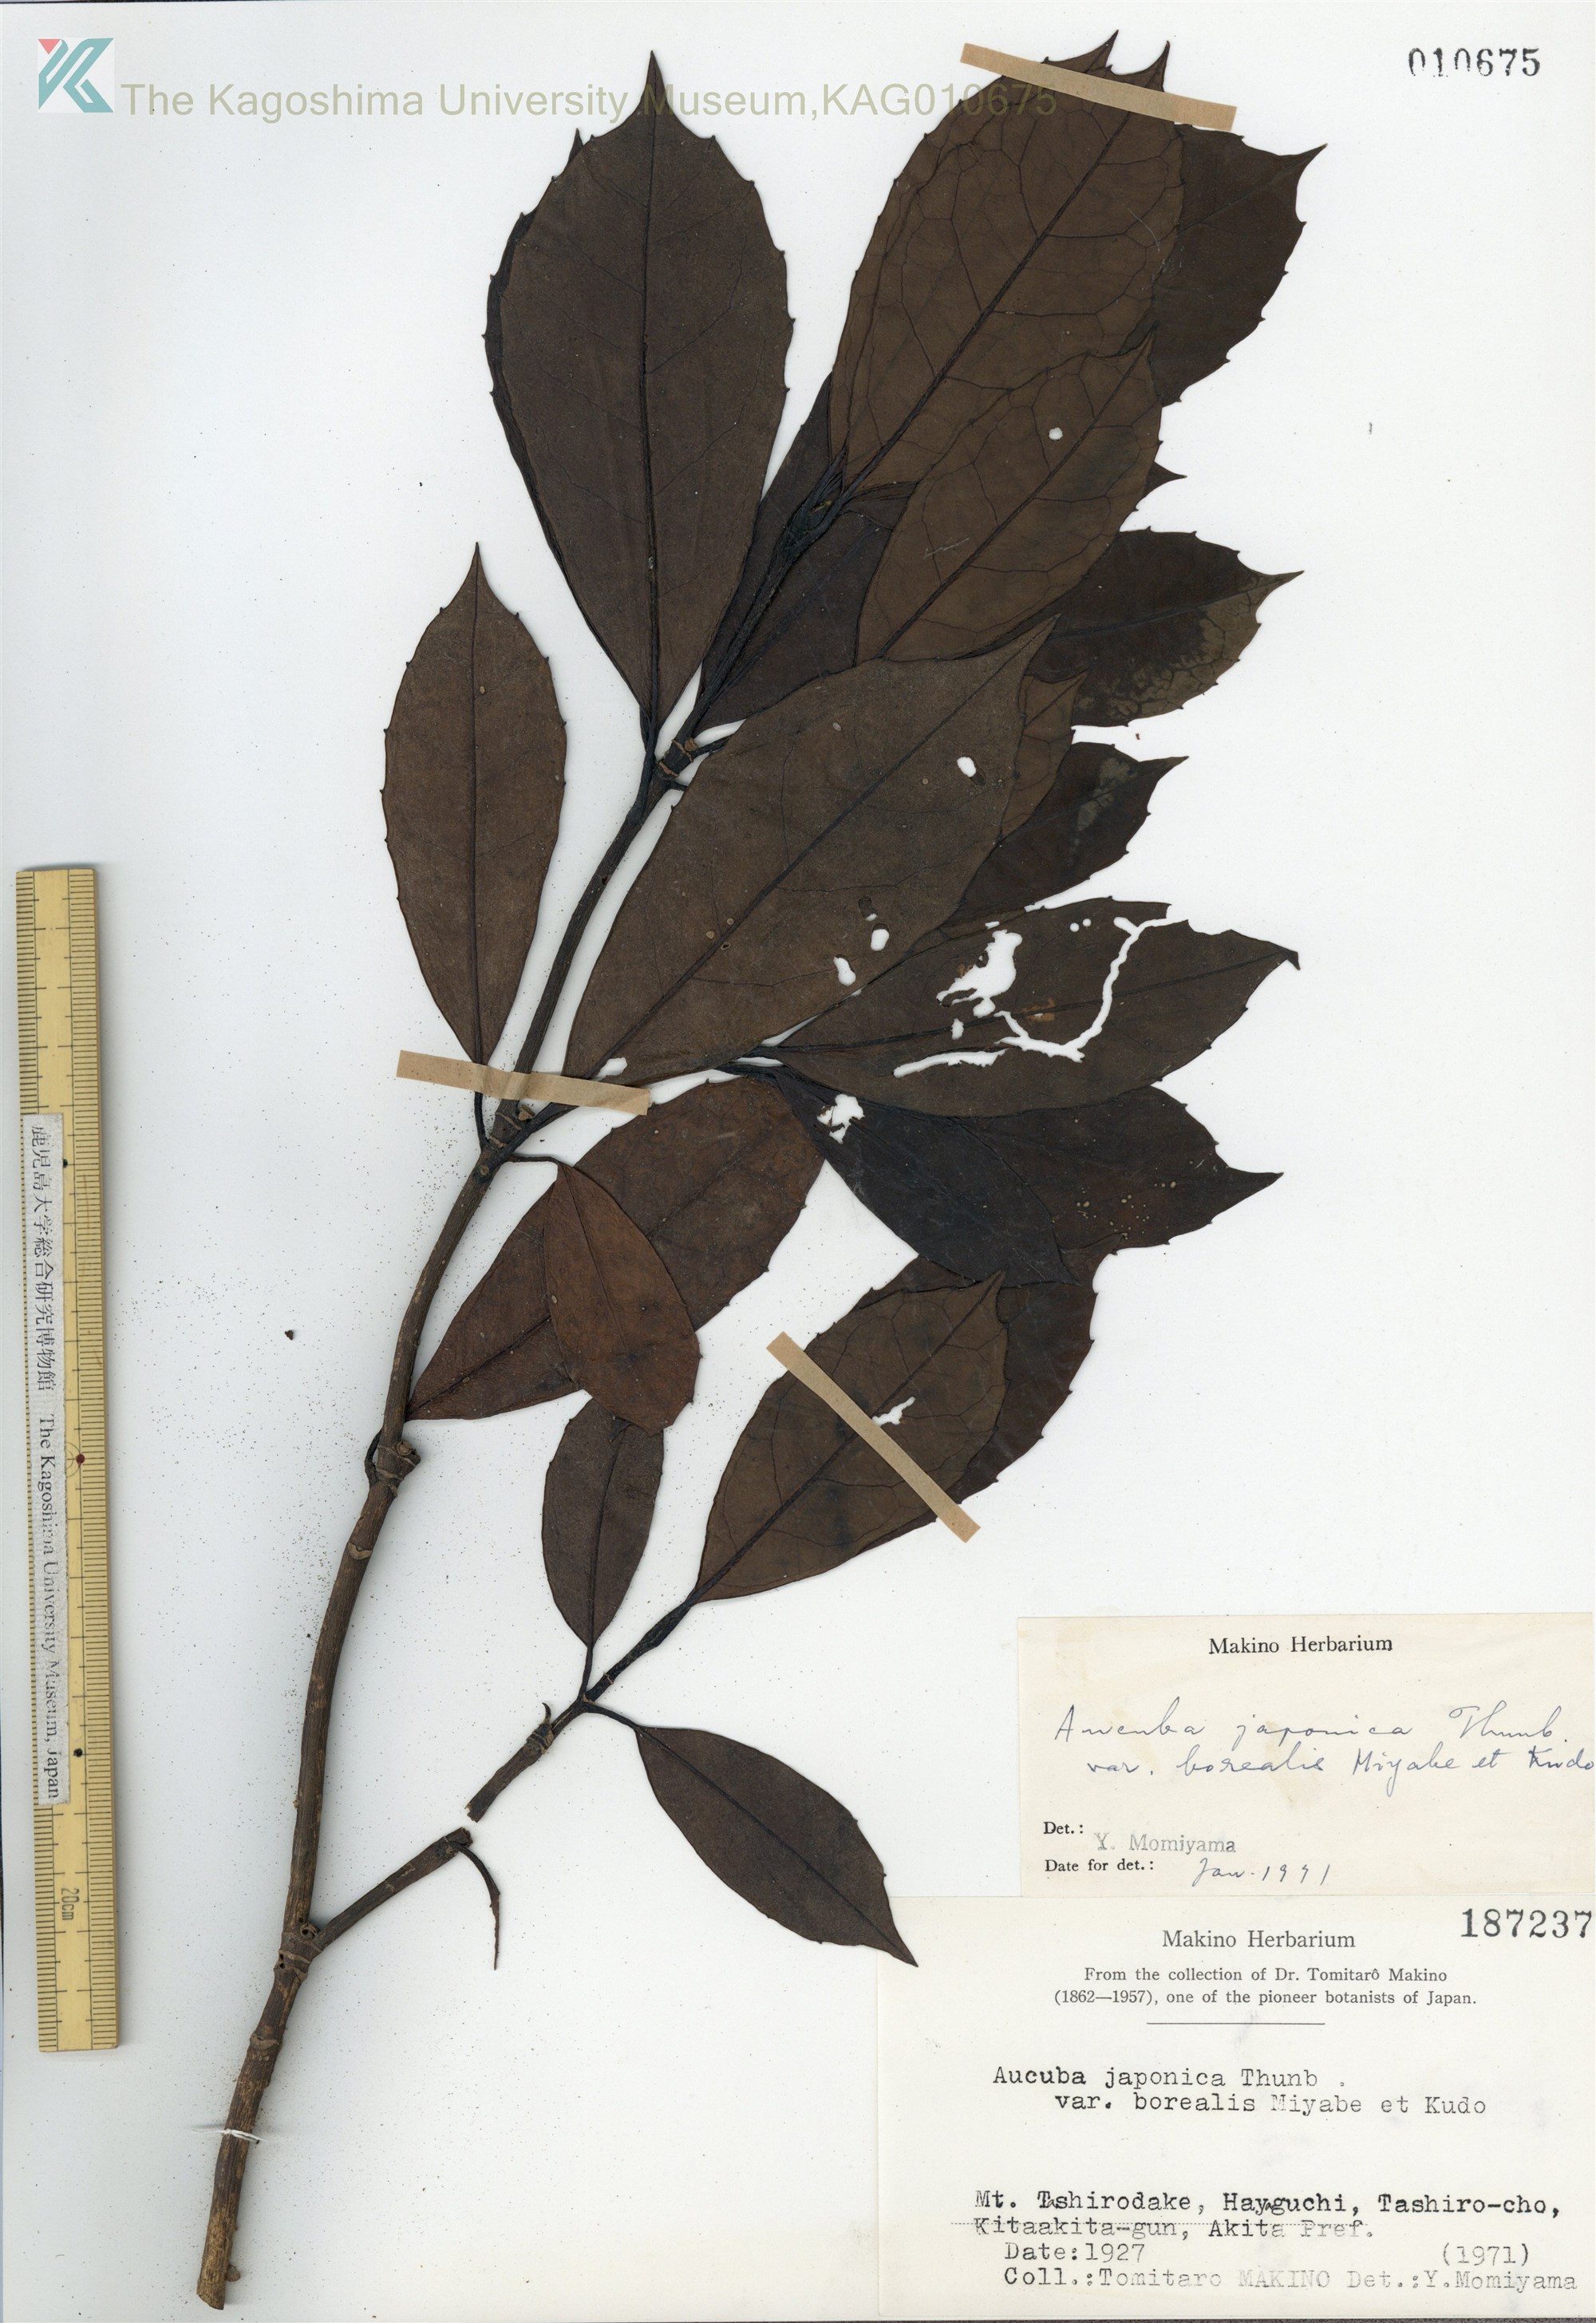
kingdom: Plantae
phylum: Tracheophyta
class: Magnoliopsida
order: Garryales
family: Garryaceae
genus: Aucuba
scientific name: Aucuba japonica
